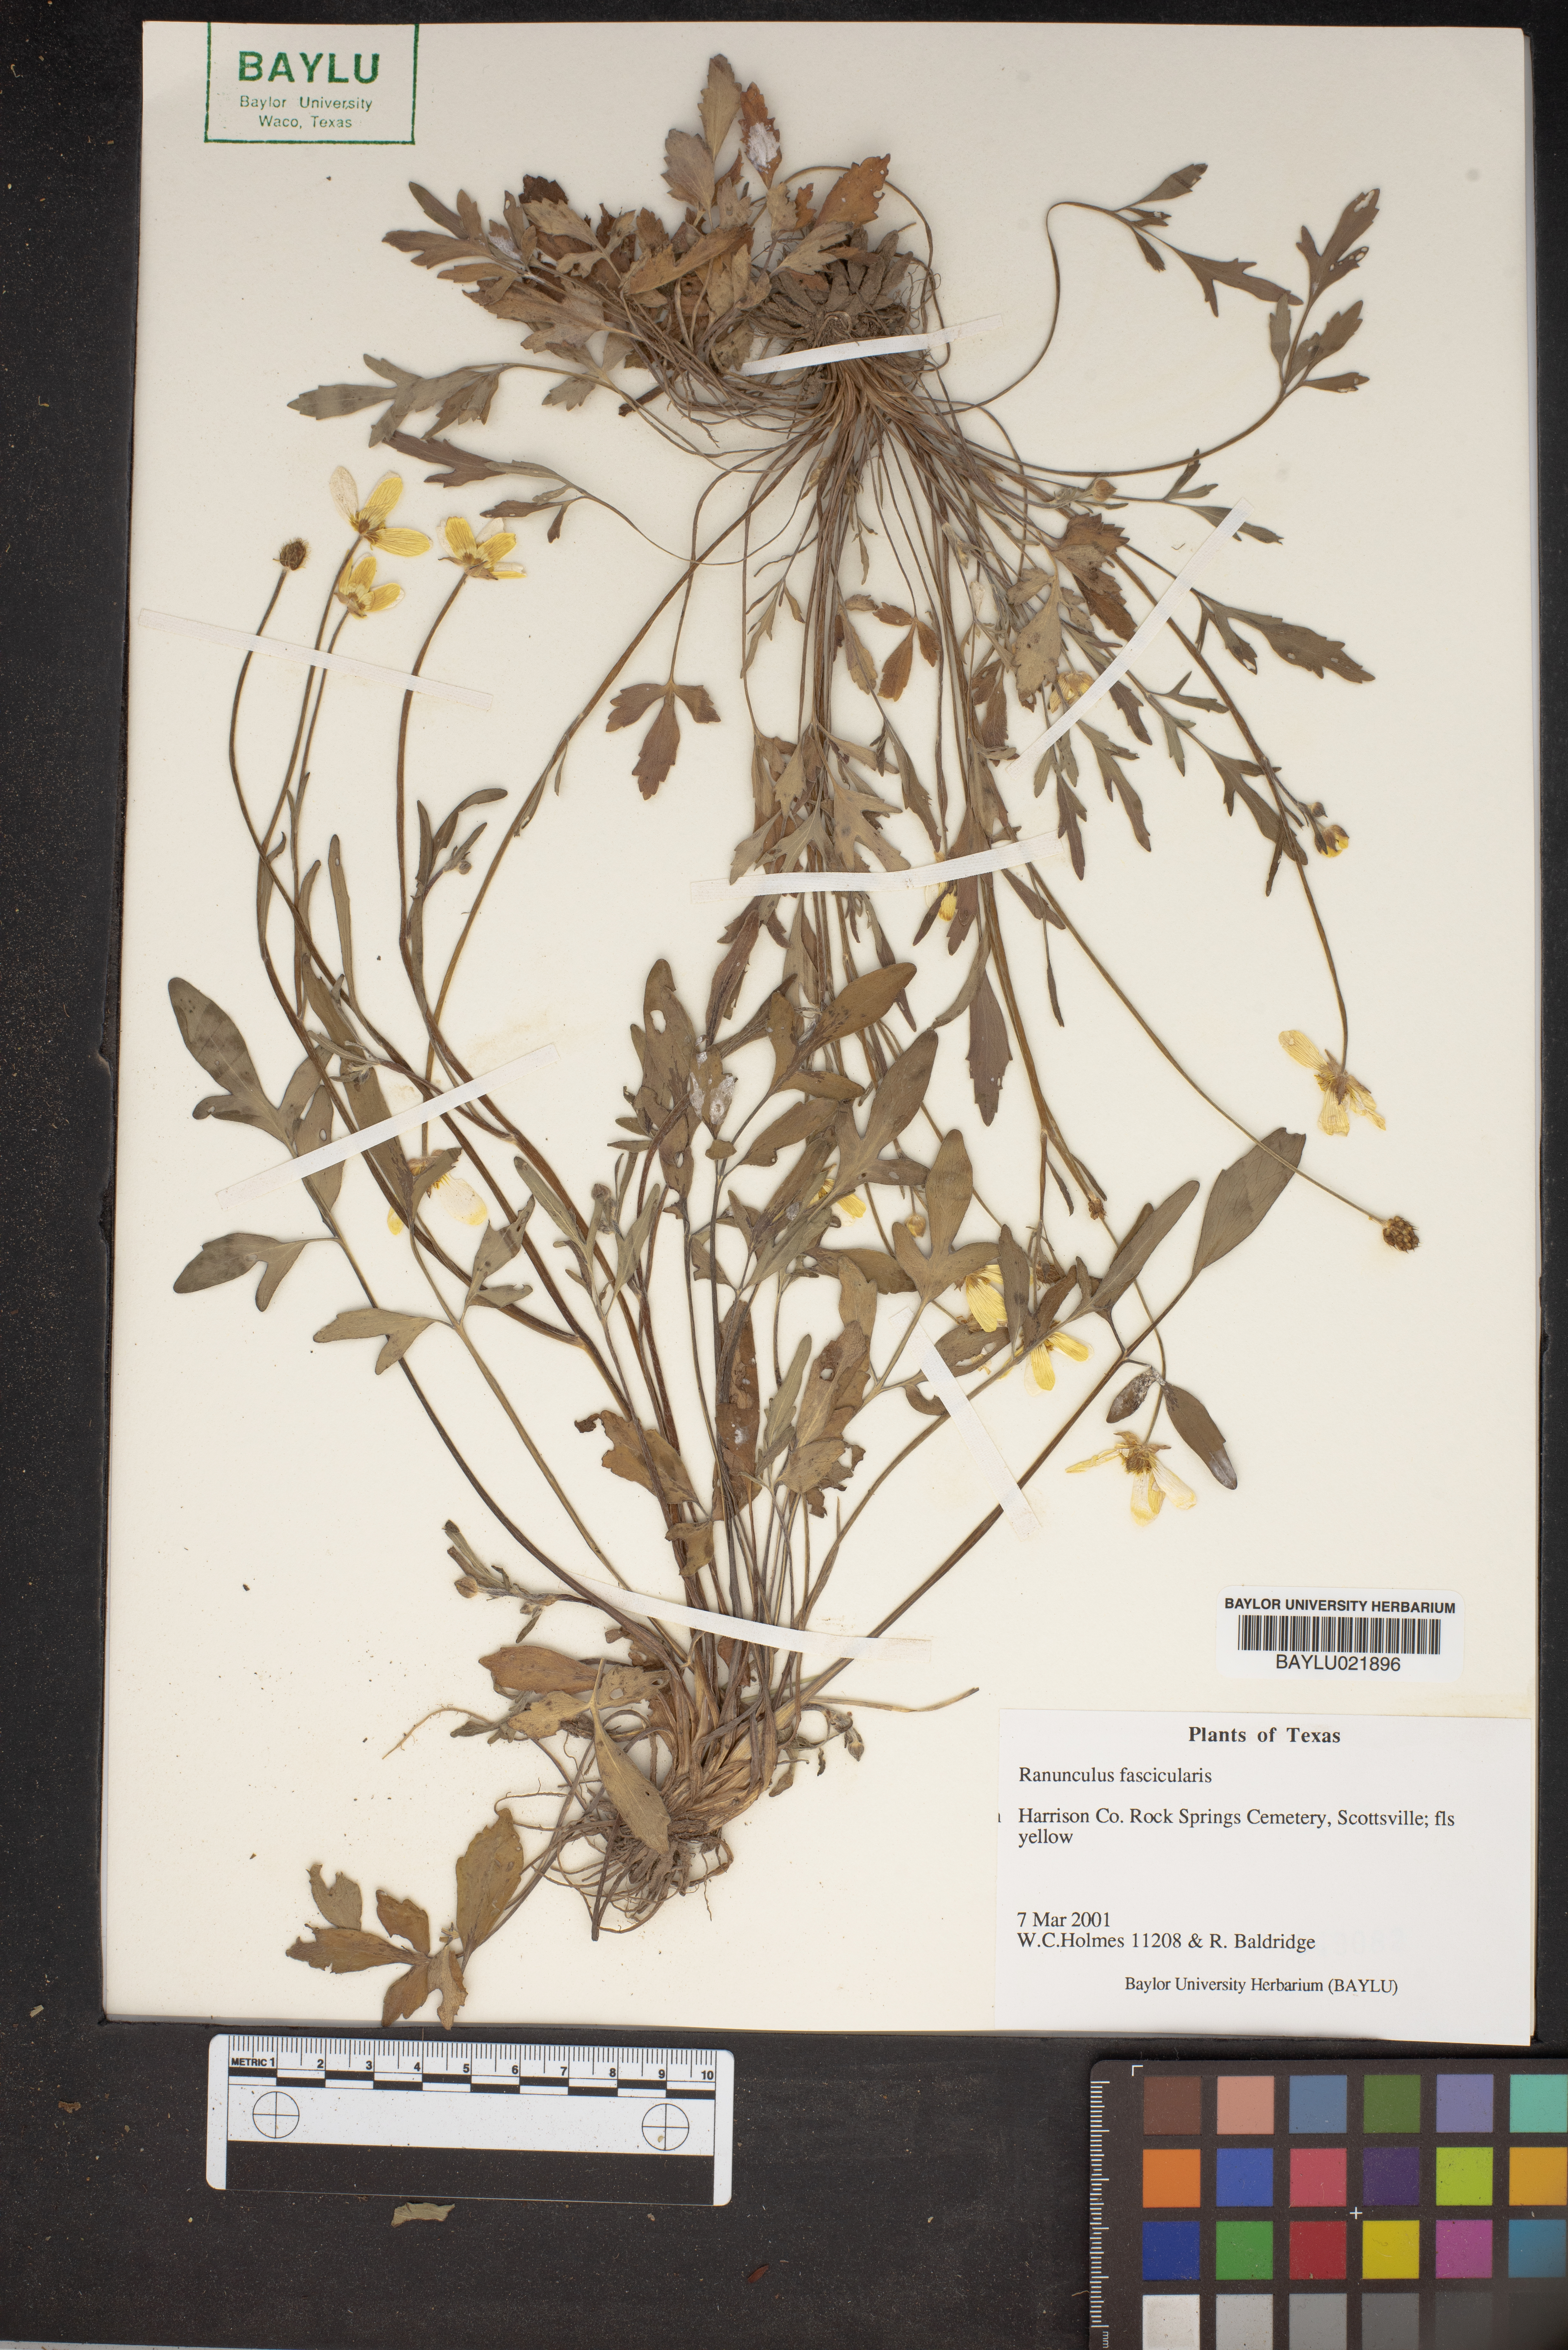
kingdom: Plantae
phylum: Tracheophyta
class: Magnoliopsida
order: Ranunculales
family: Ranunculaceae
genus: Ranunculus
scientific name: Ranunculus fascicularis
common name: Early buttercup
